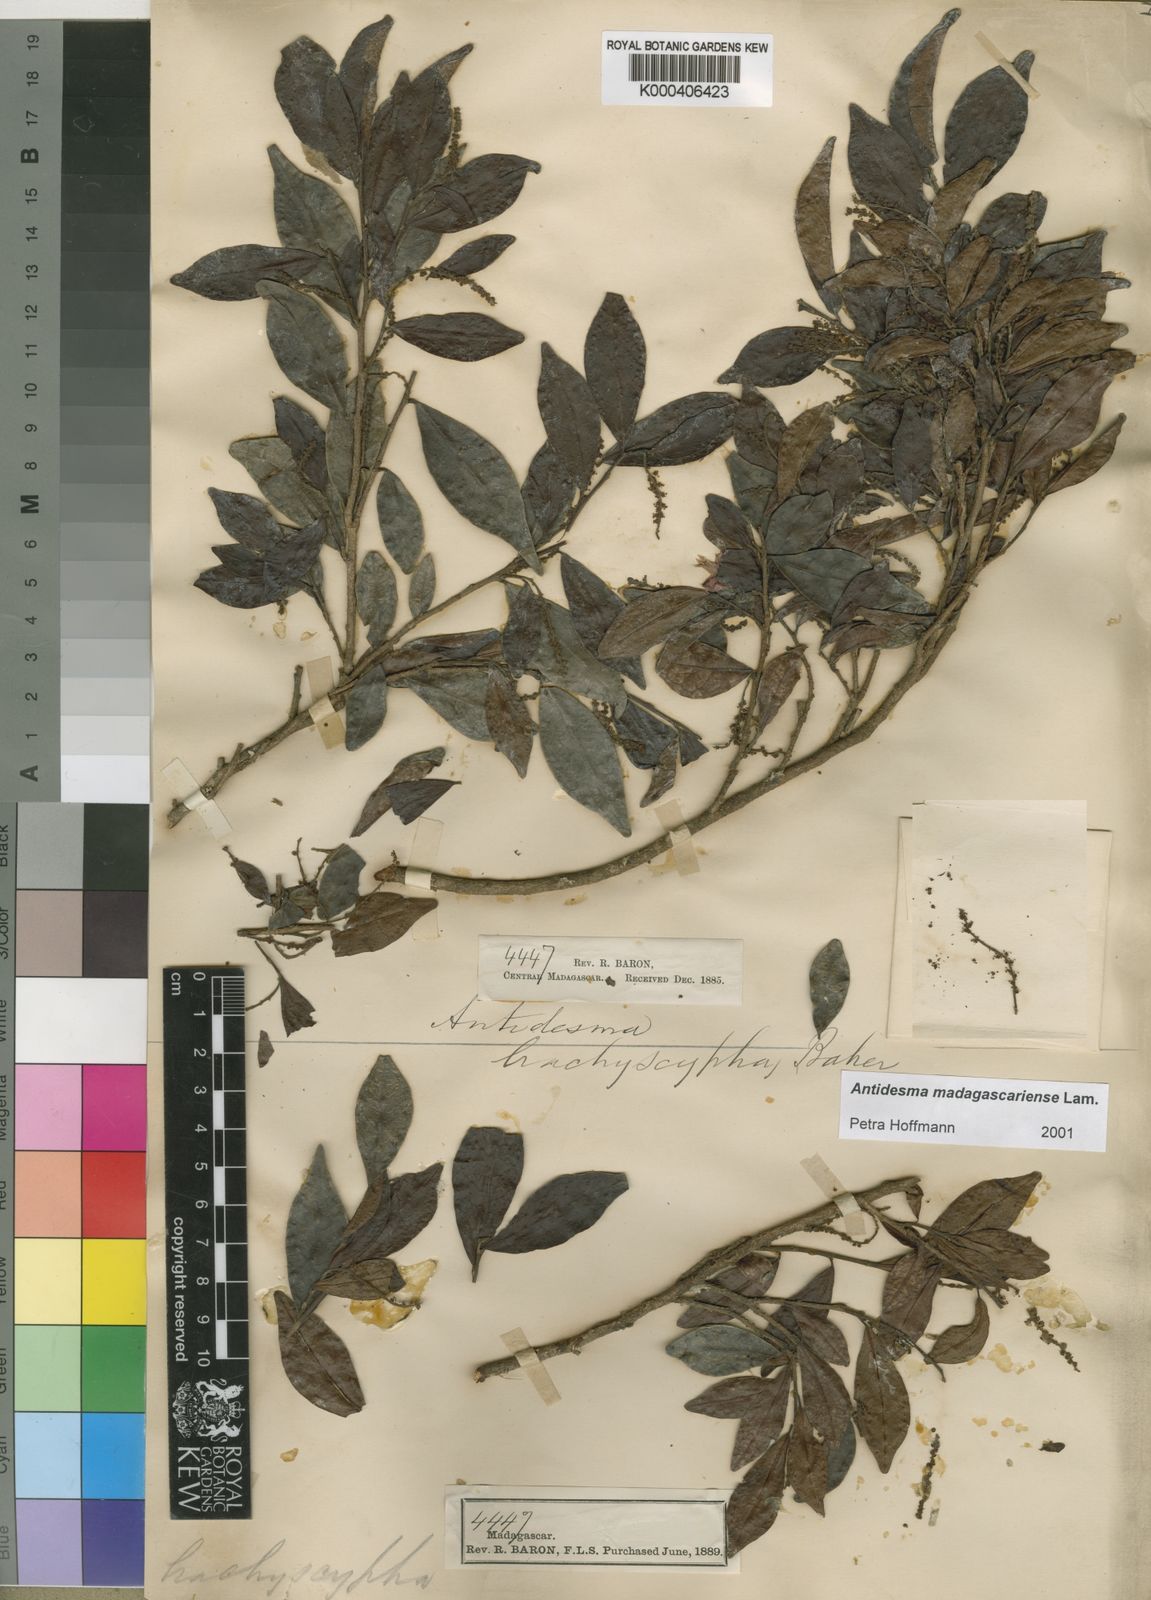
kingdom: Plantae
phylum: Tracheophyta
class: Magnoliopsida
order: Malpighiales
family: Phyllanthaceae
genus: Antidesma
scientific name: Antidesma madagascariense
